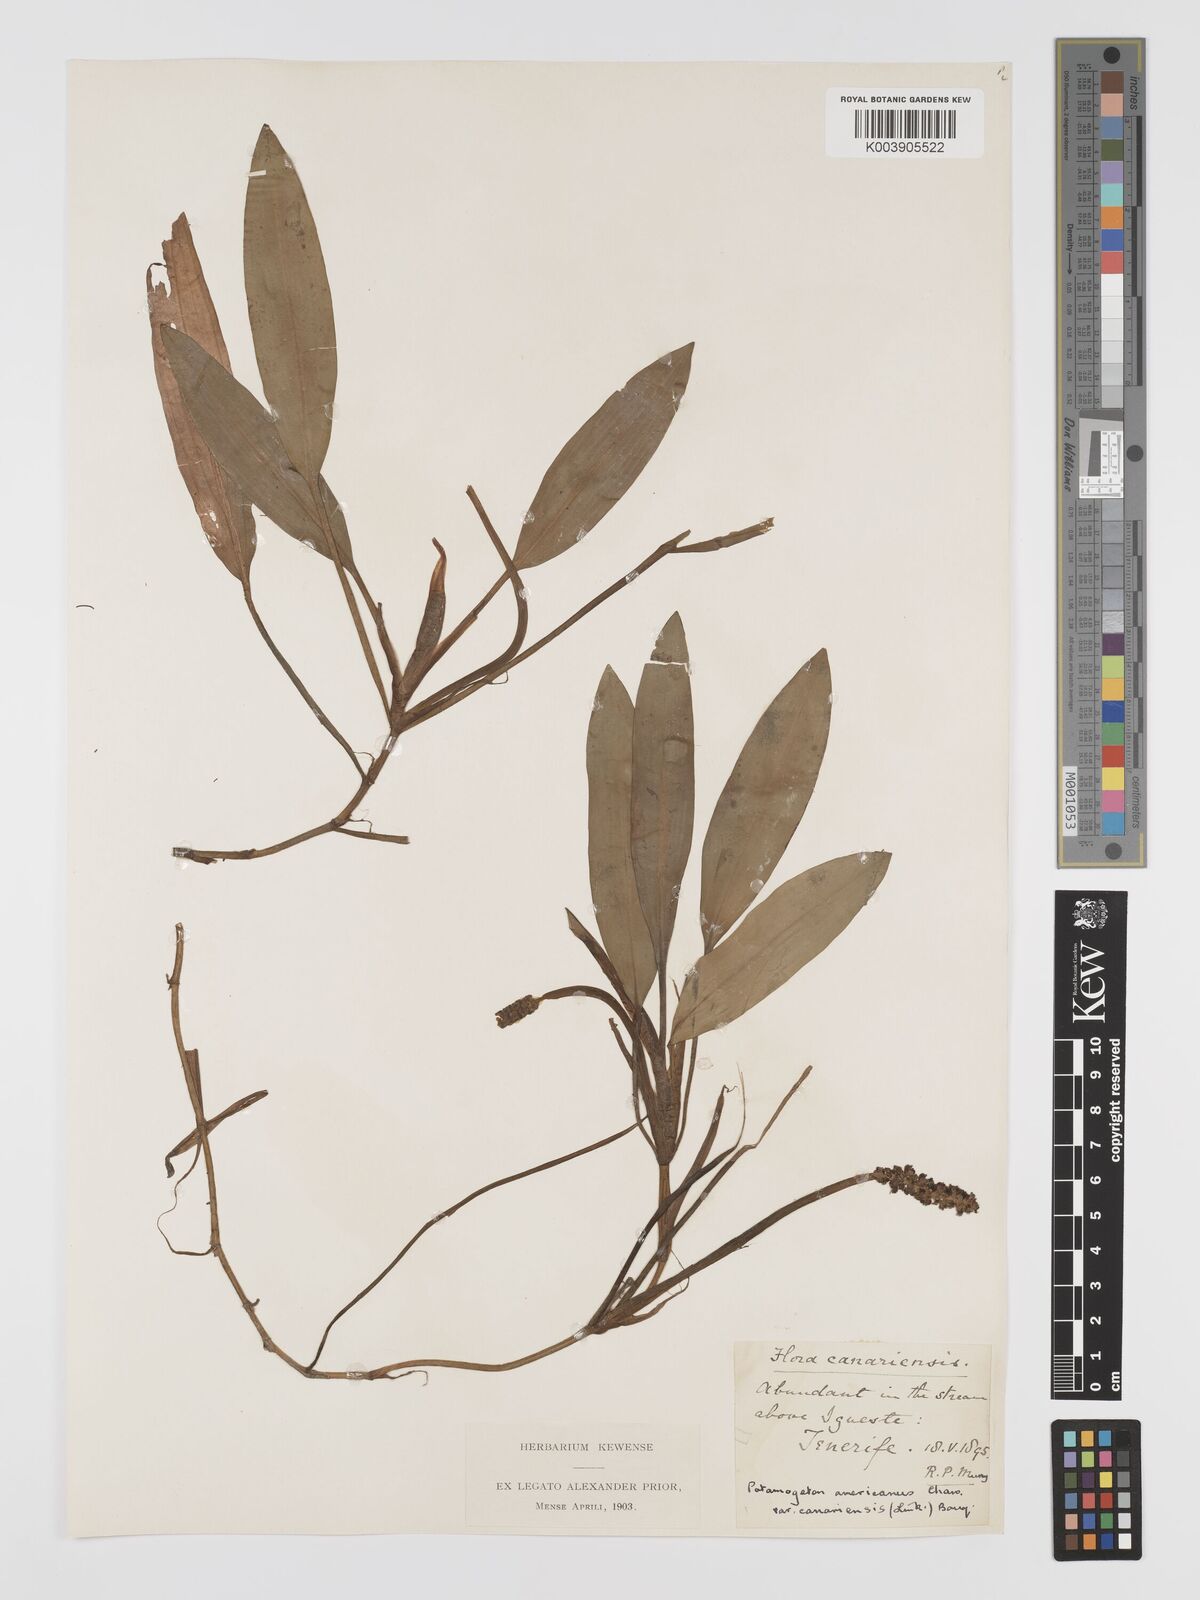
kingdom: Plantae
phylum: Tracheophyta
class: Liliopsida
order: Alismatales
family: Potamogetonaceae
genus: Potamogeton
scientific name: Potamogeton nodosus
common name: Loddon pondweed
